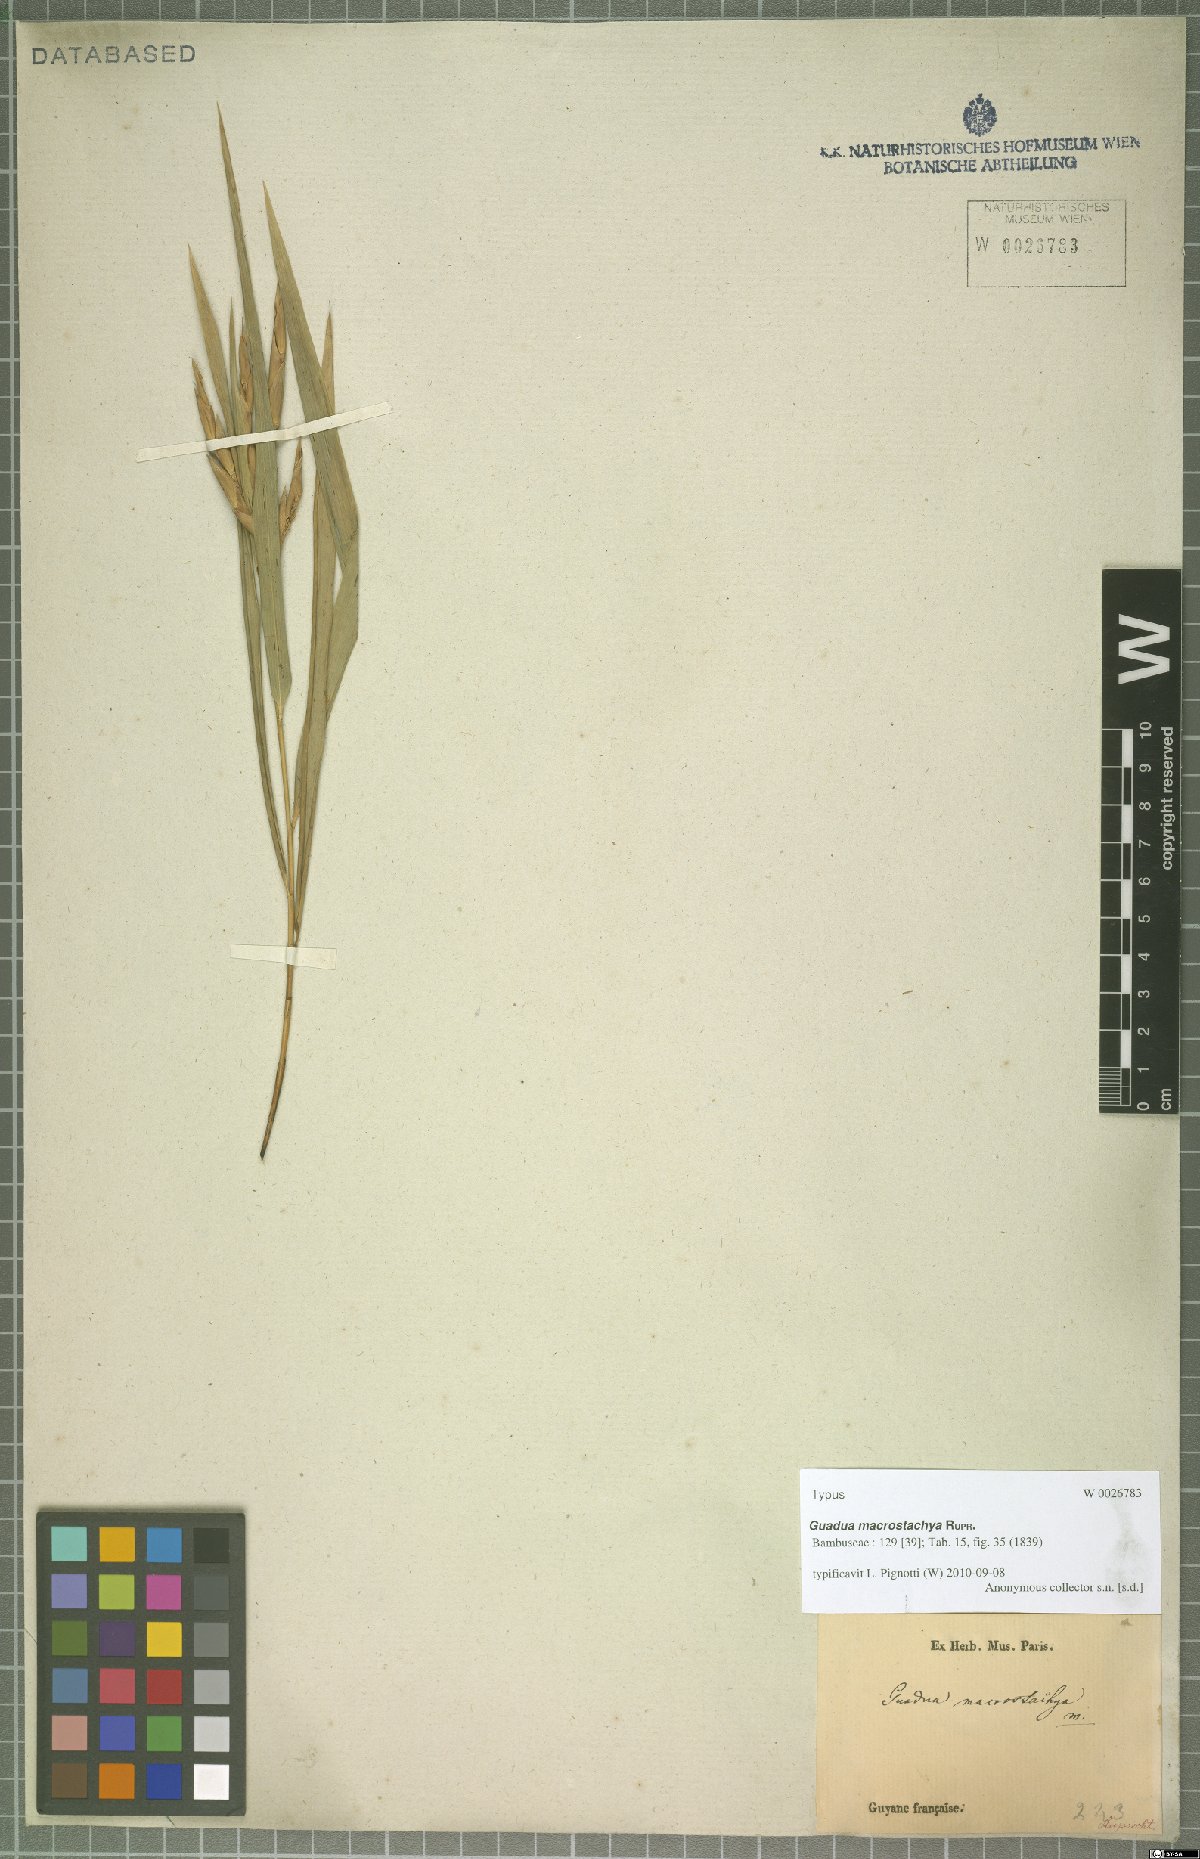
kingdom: Plantae
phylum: Tracheophyta
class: Liliopsida
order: Poales
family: Poaceae
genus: Guadua
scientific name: Guadua macrostachya
